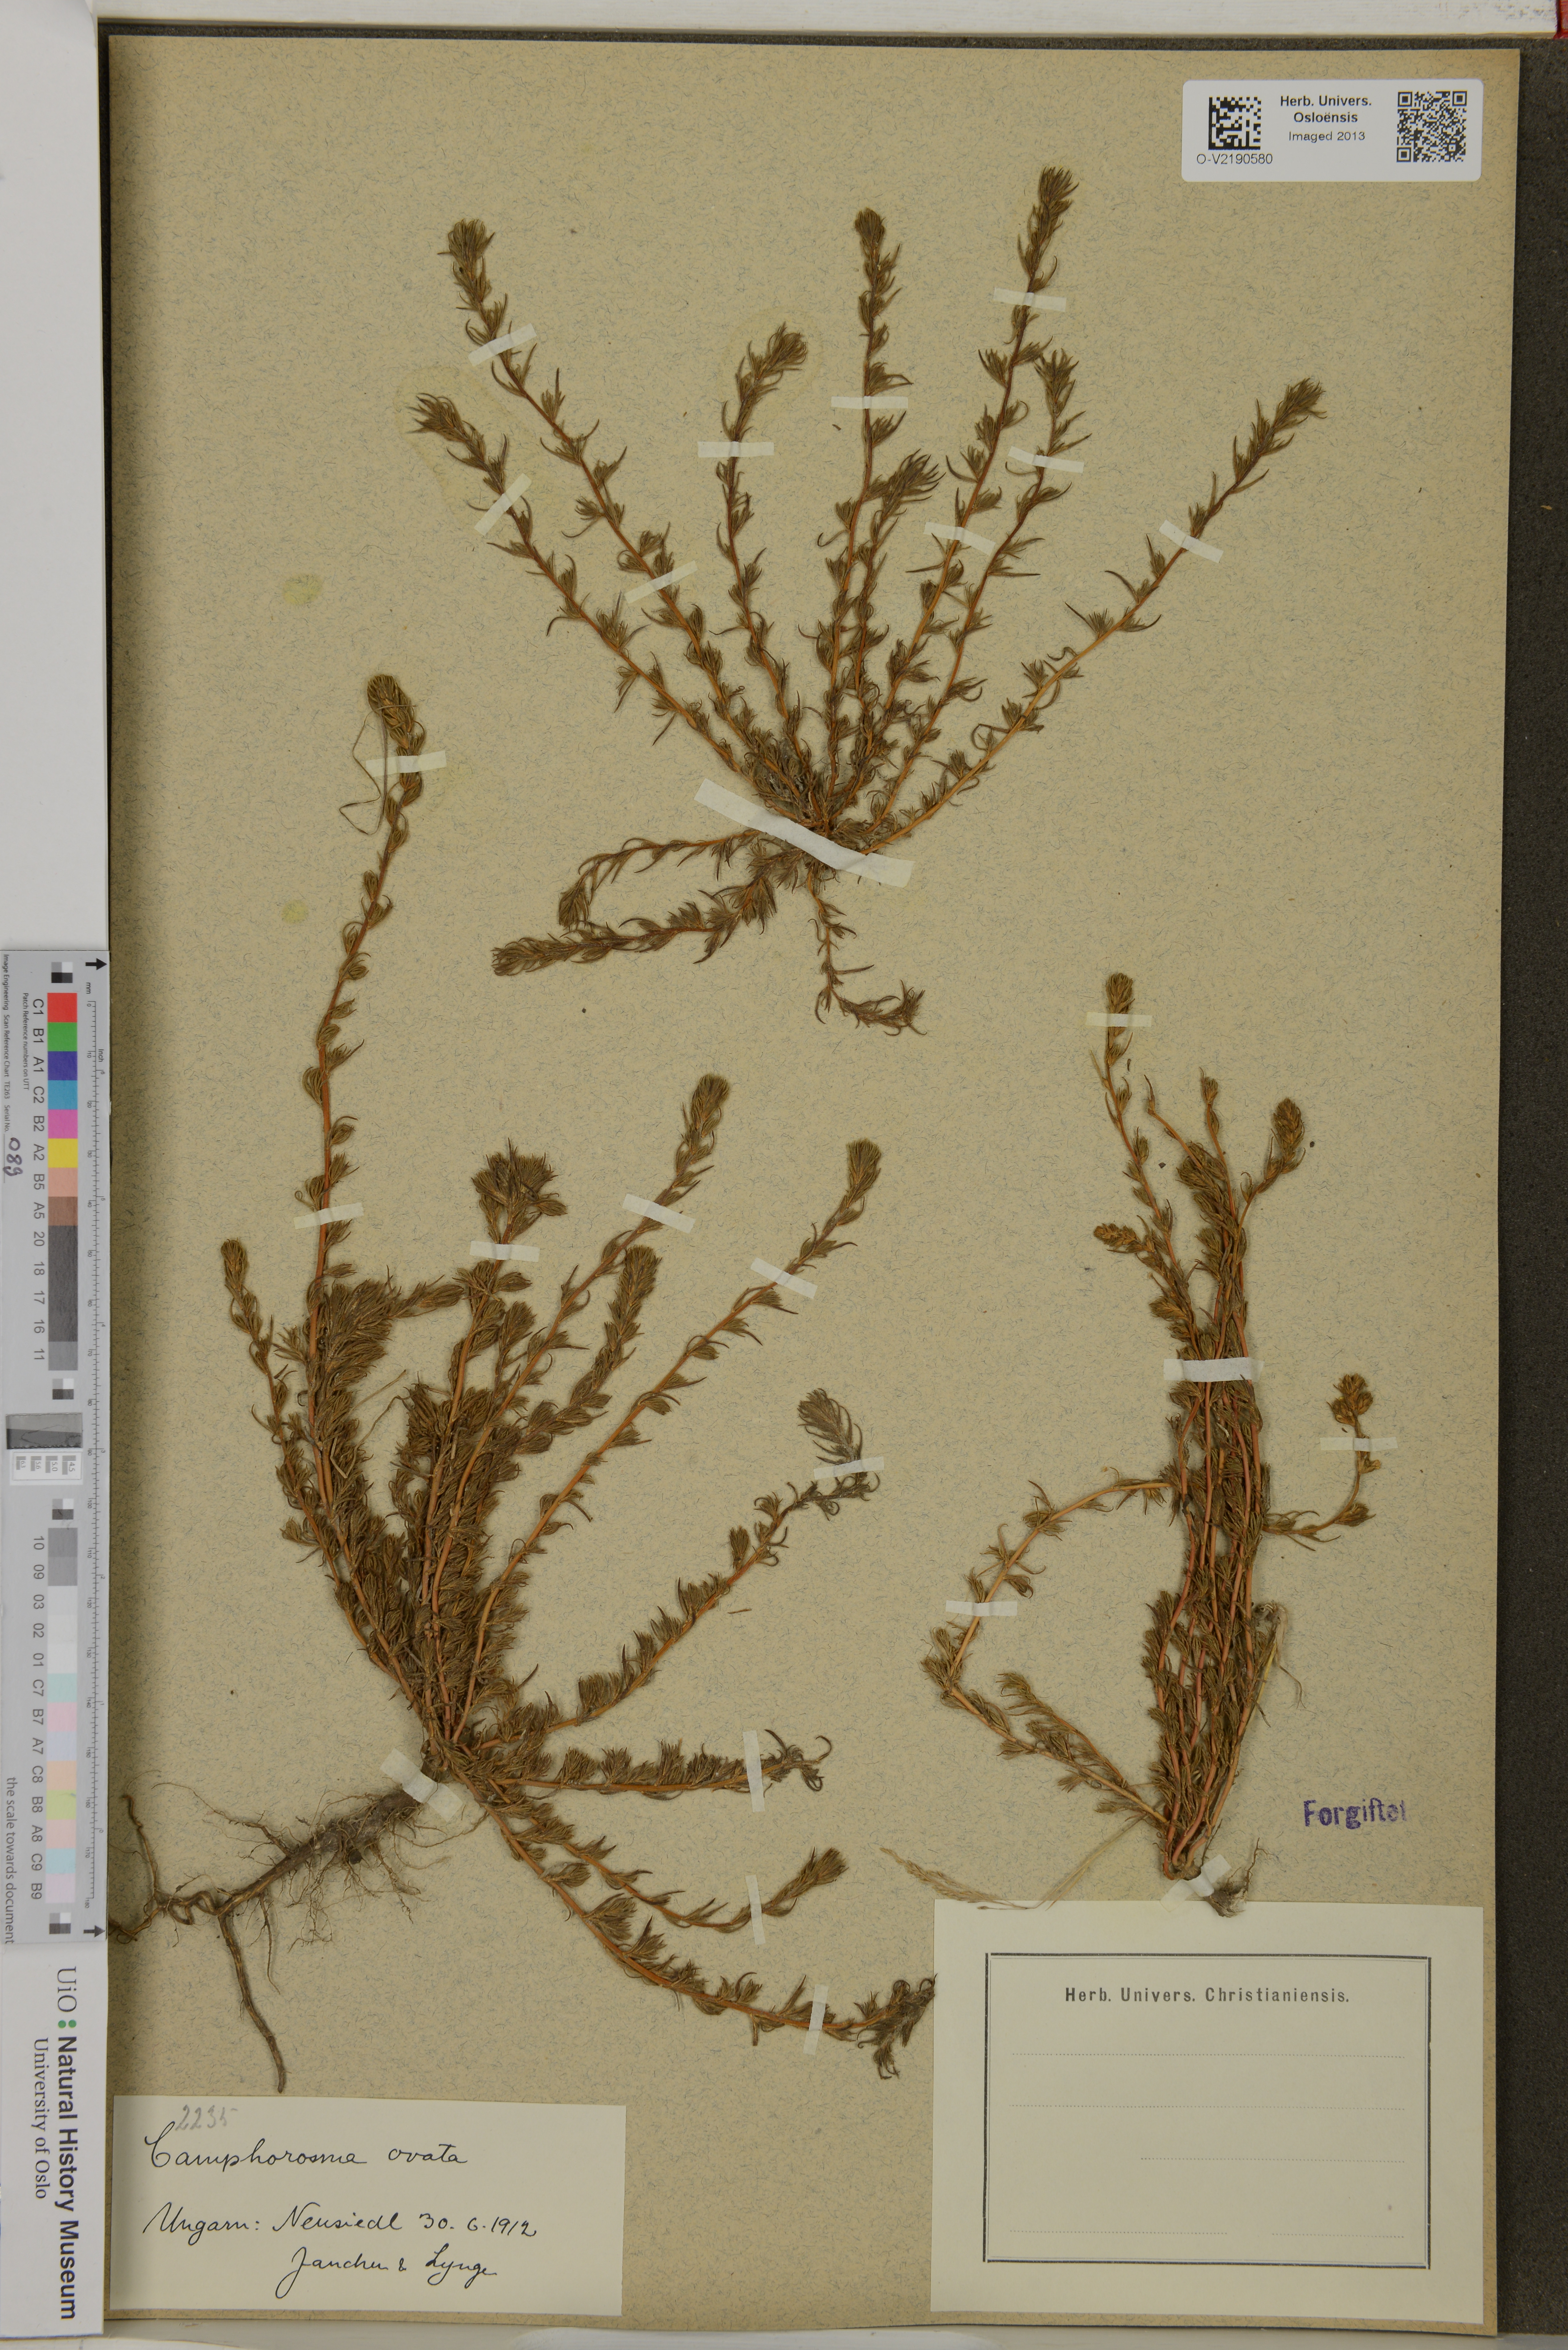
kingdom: Plantae
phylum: Tracheophyta
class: Magnoliopsida
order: Caryophyllales
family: Amaranthaceae
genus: Camphorosma
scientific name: Camphorosma ovata
